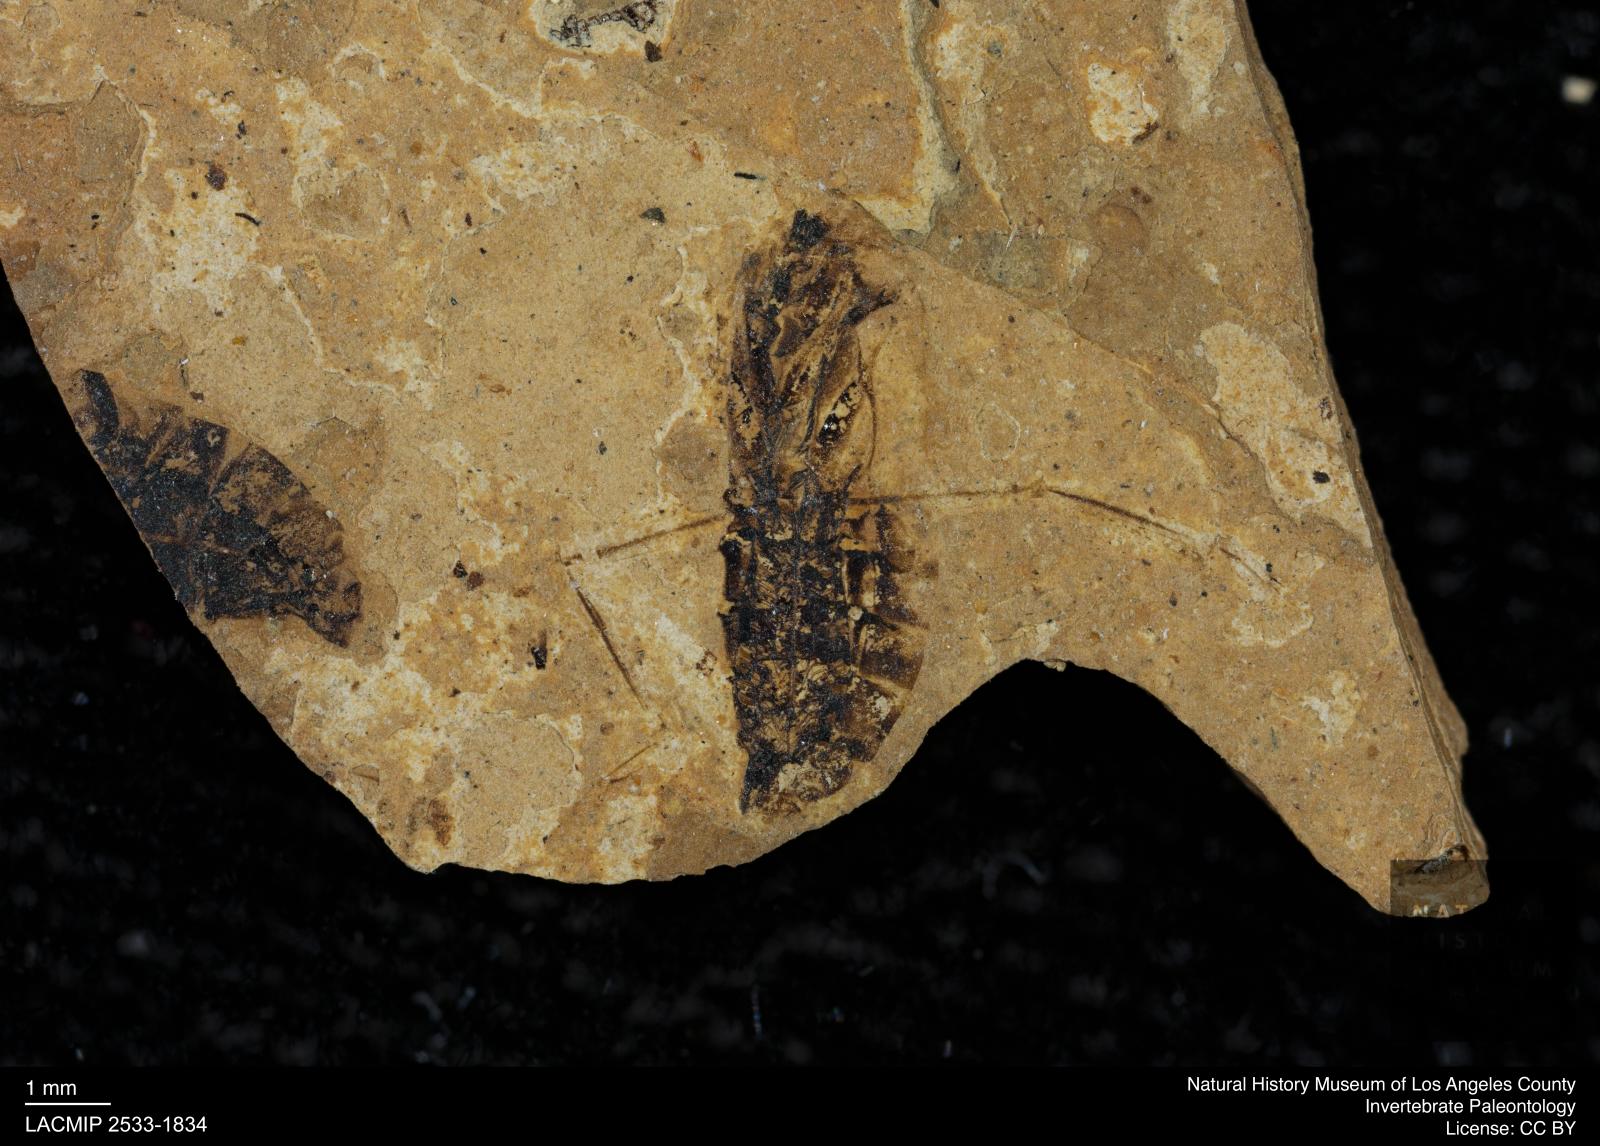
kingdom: Animalia
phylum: Arthropoda
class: Insecta
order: Hemiptera
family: Notonectidae
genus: Notonecta
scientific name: Notonecta
